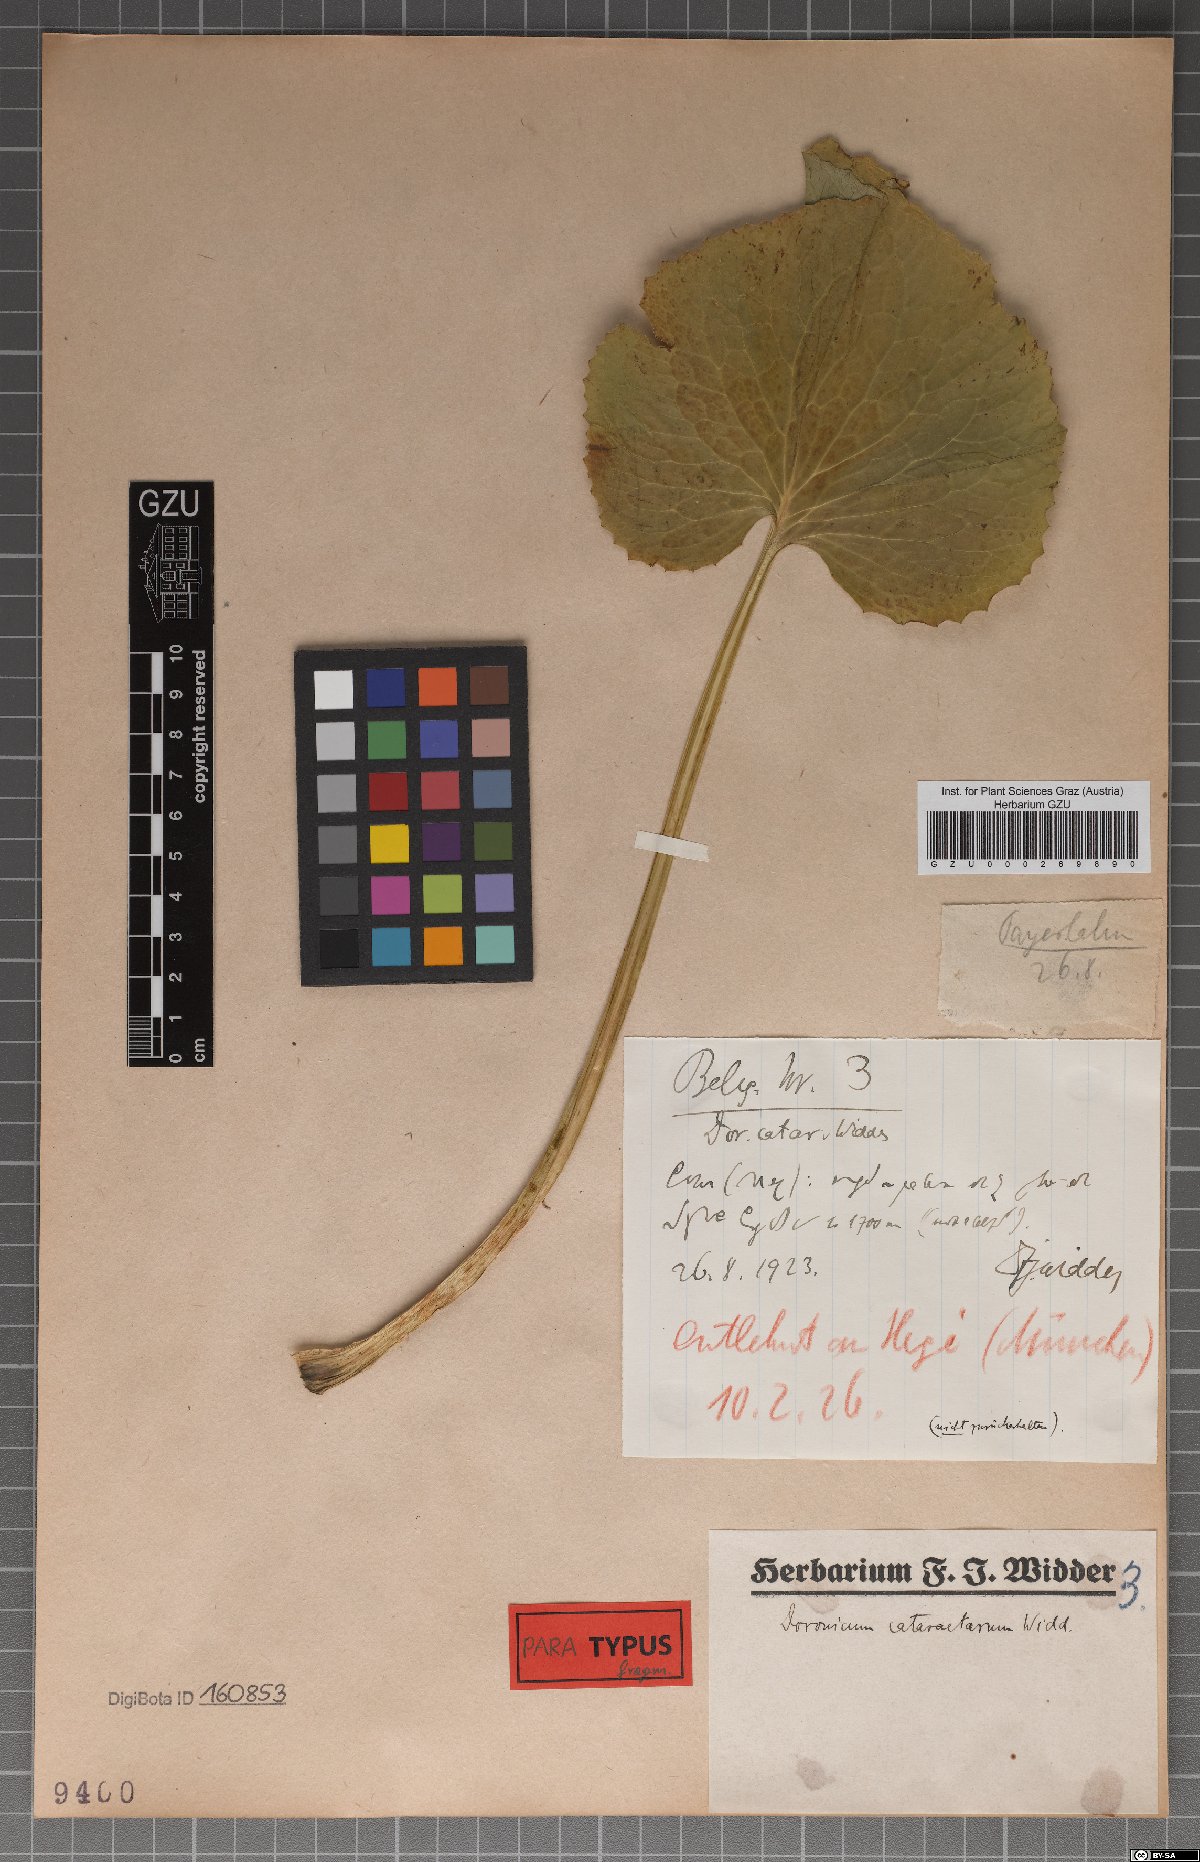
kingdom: Plantae
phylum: Tracheophyta
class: Magnoliopsida
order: Asterales
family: Asteraceae
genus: Doronicum
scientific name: Doronicum cataractarum
